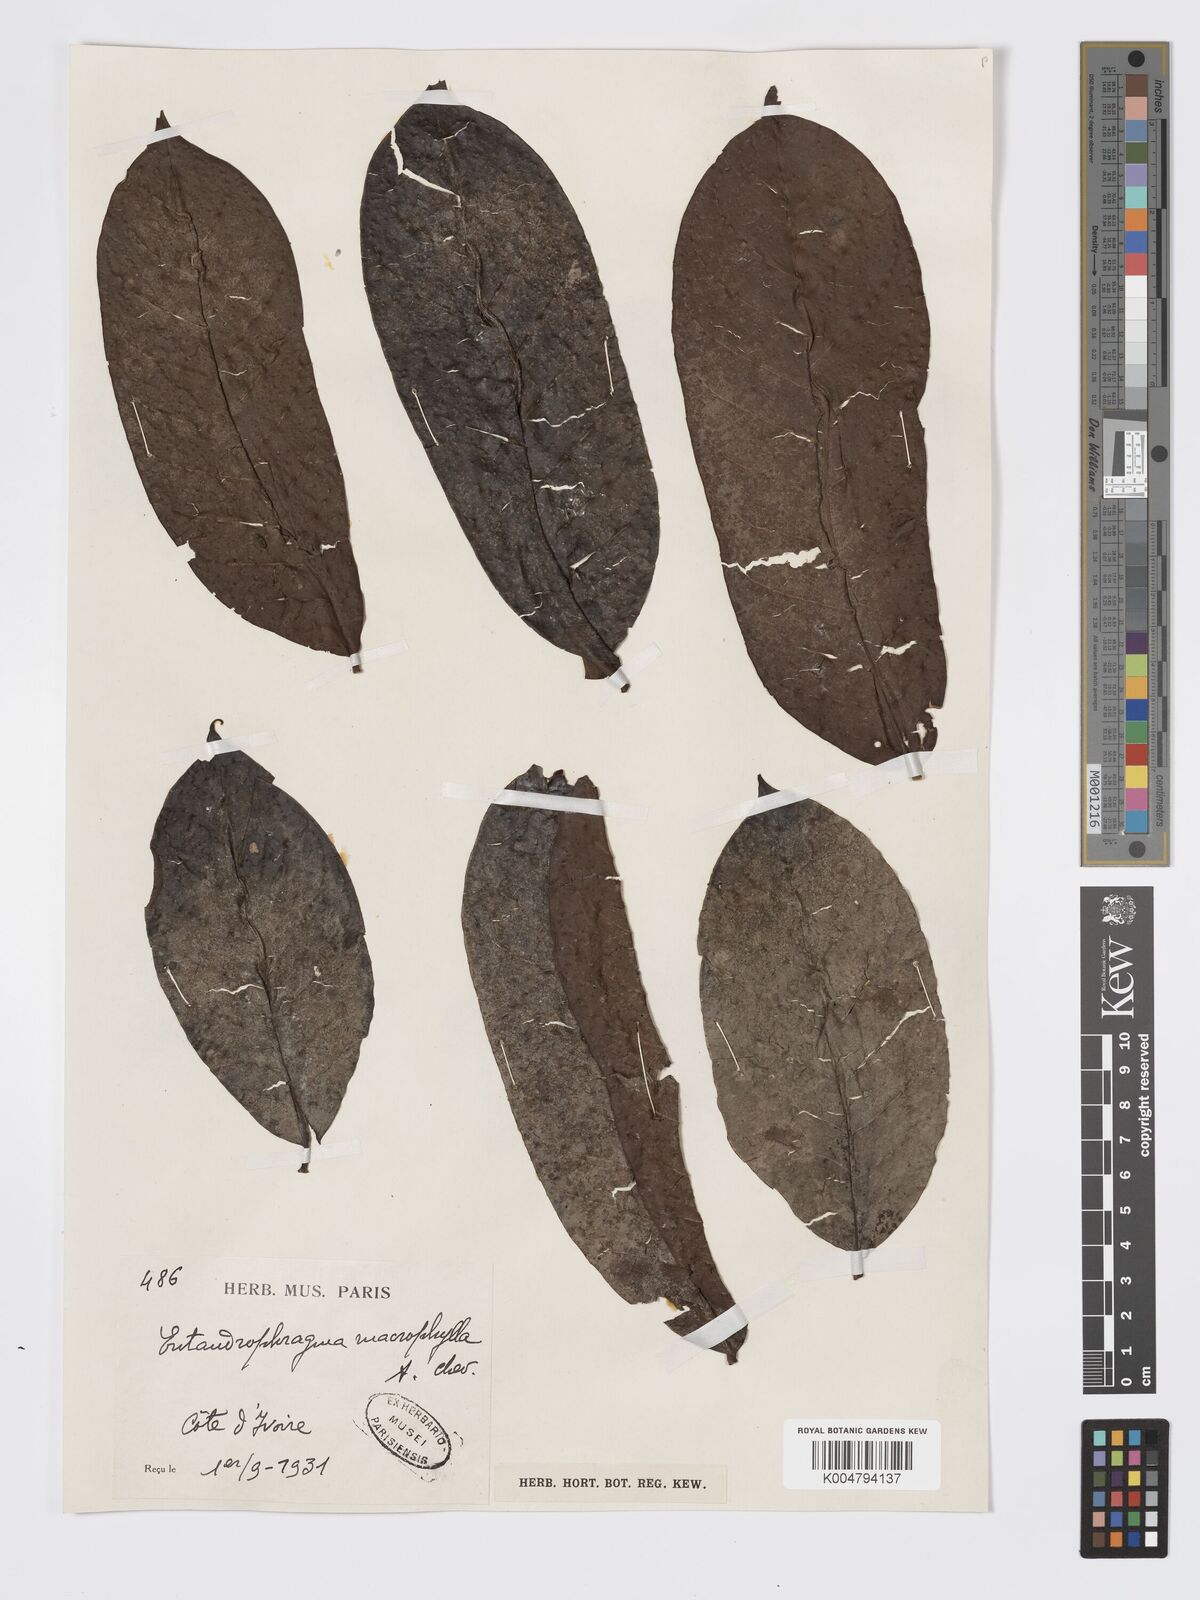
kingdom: Plantae
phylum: Tracheophyta
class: Magnoliopsida
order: Sapindales
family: Meliaceae
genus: Entandrophragma
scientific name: Entandrophragma angolense
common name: African mahogany
